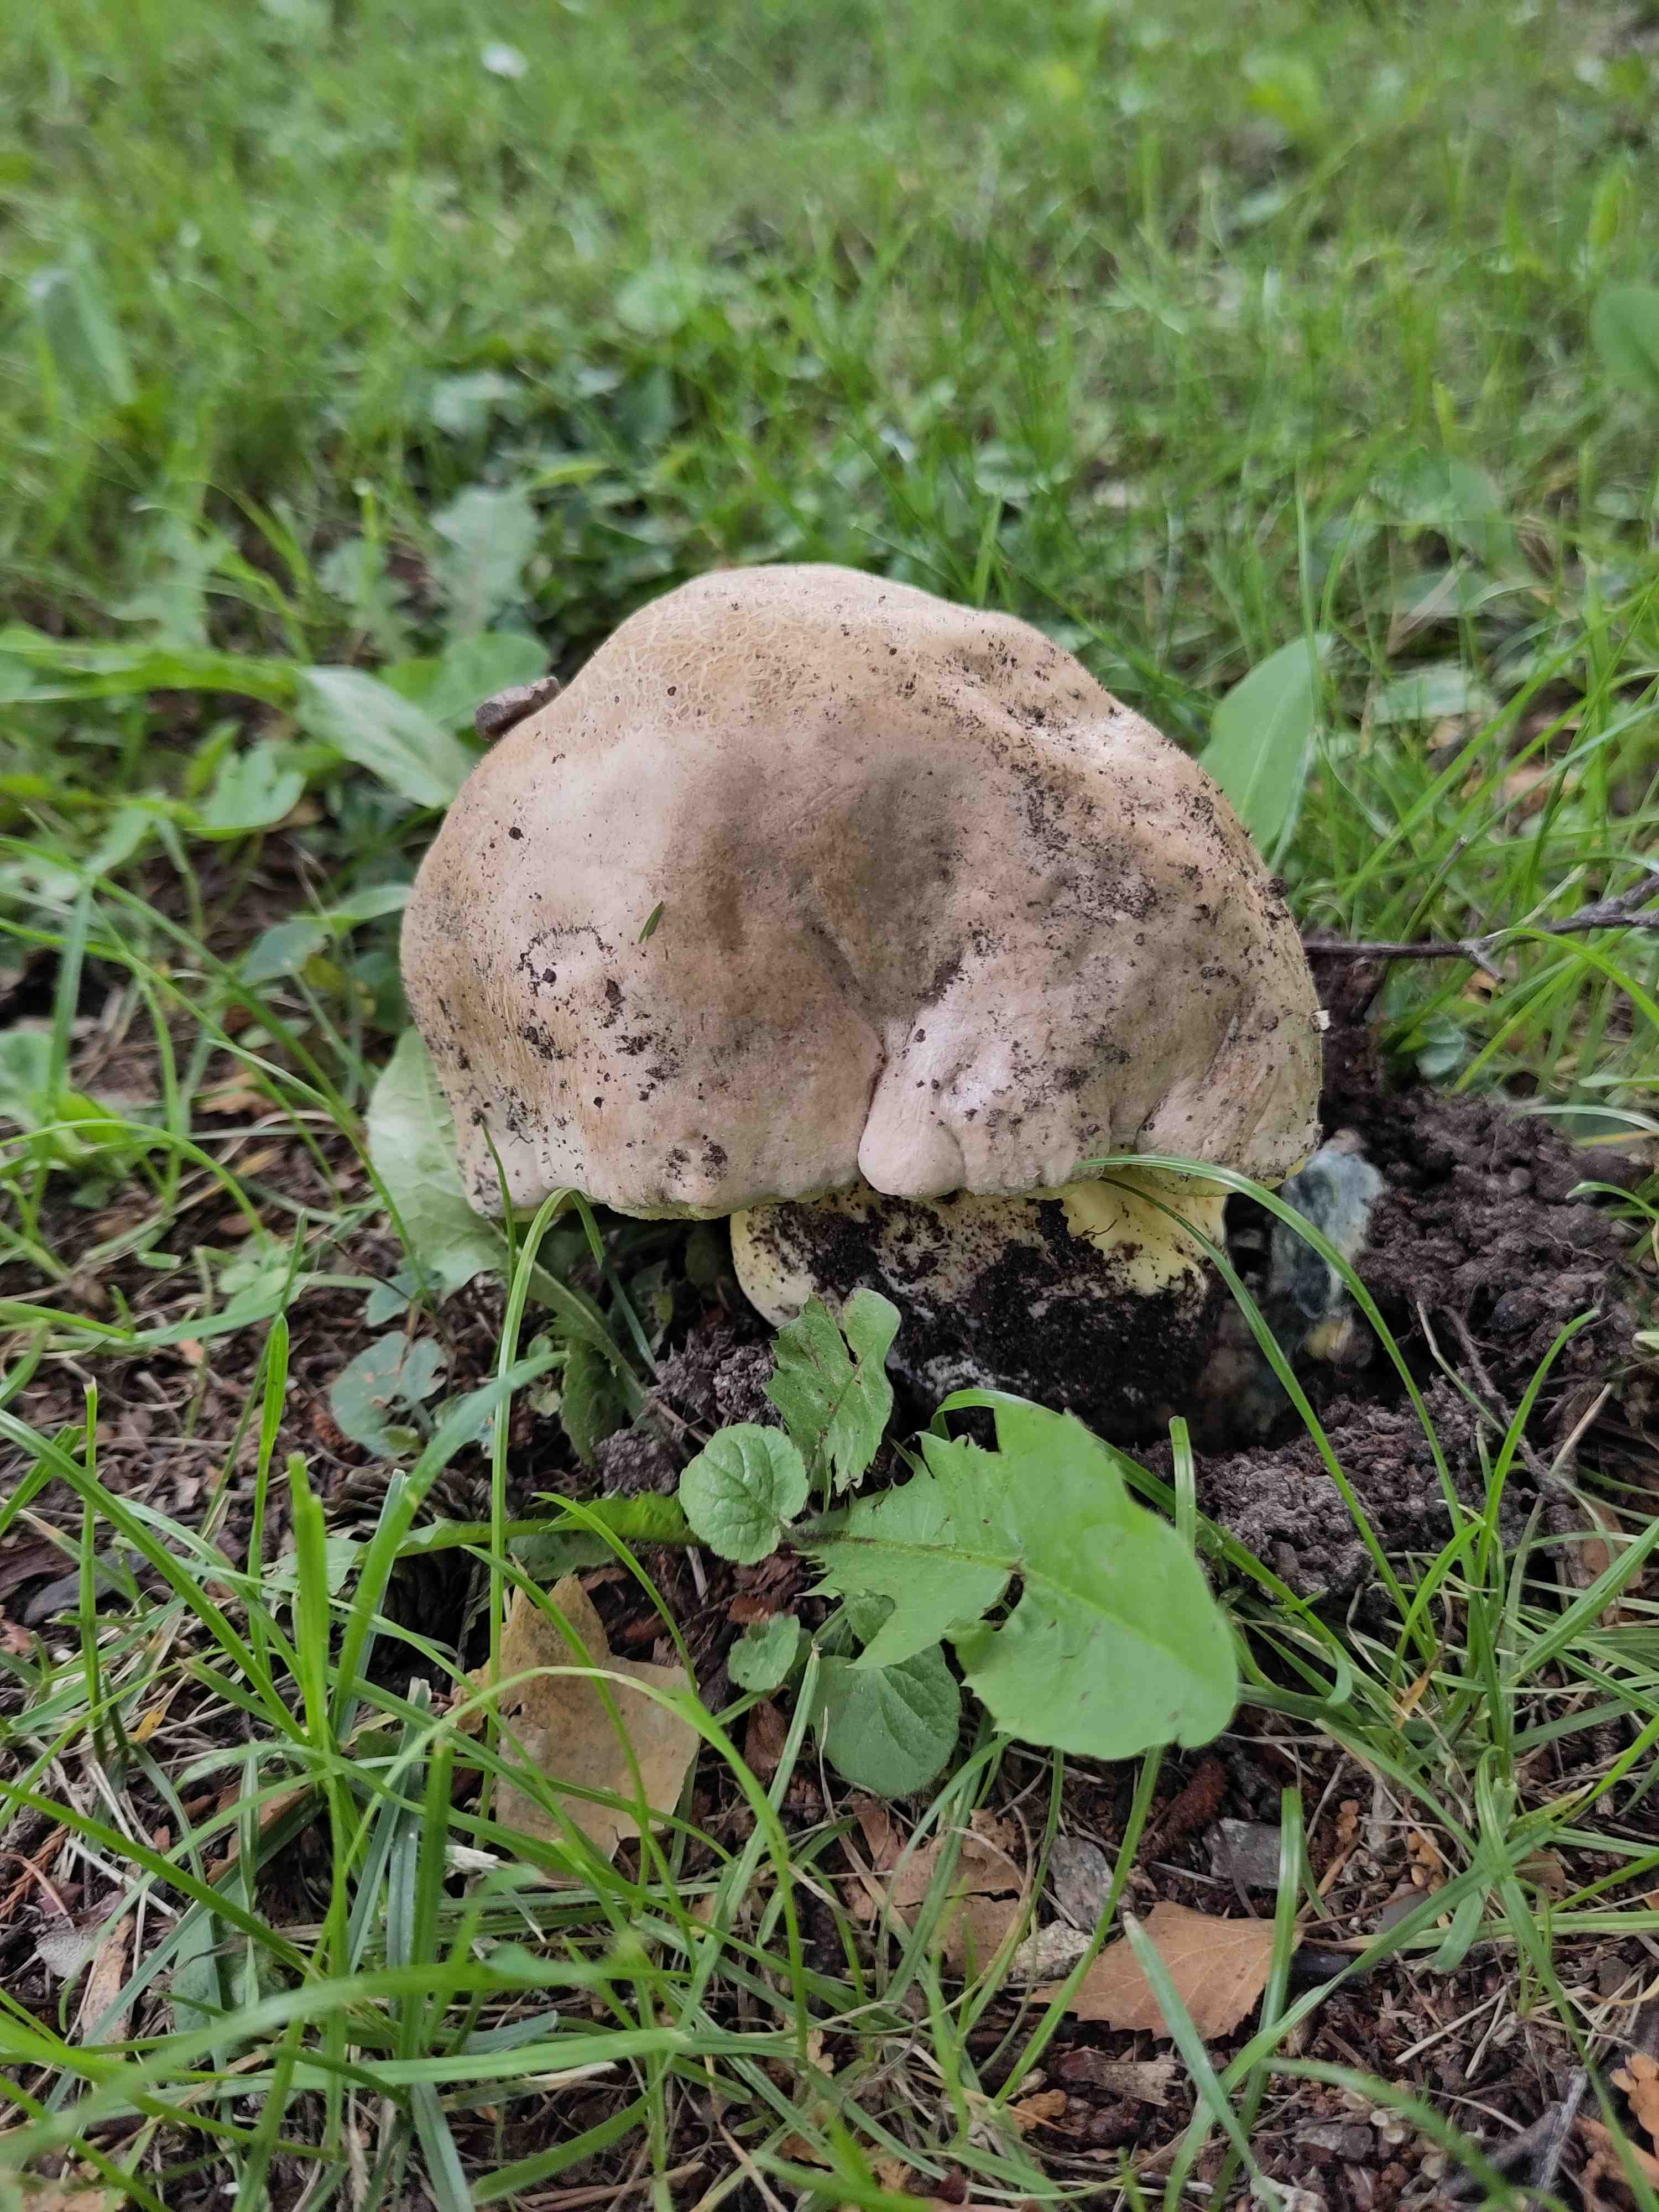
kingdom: Fungi
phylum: Basidiomycota
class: Agaricomycetes
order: Boletales
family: Boletaceae
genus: Caloboletus
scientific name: Caloboletus radicans
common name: rod-rørhat
